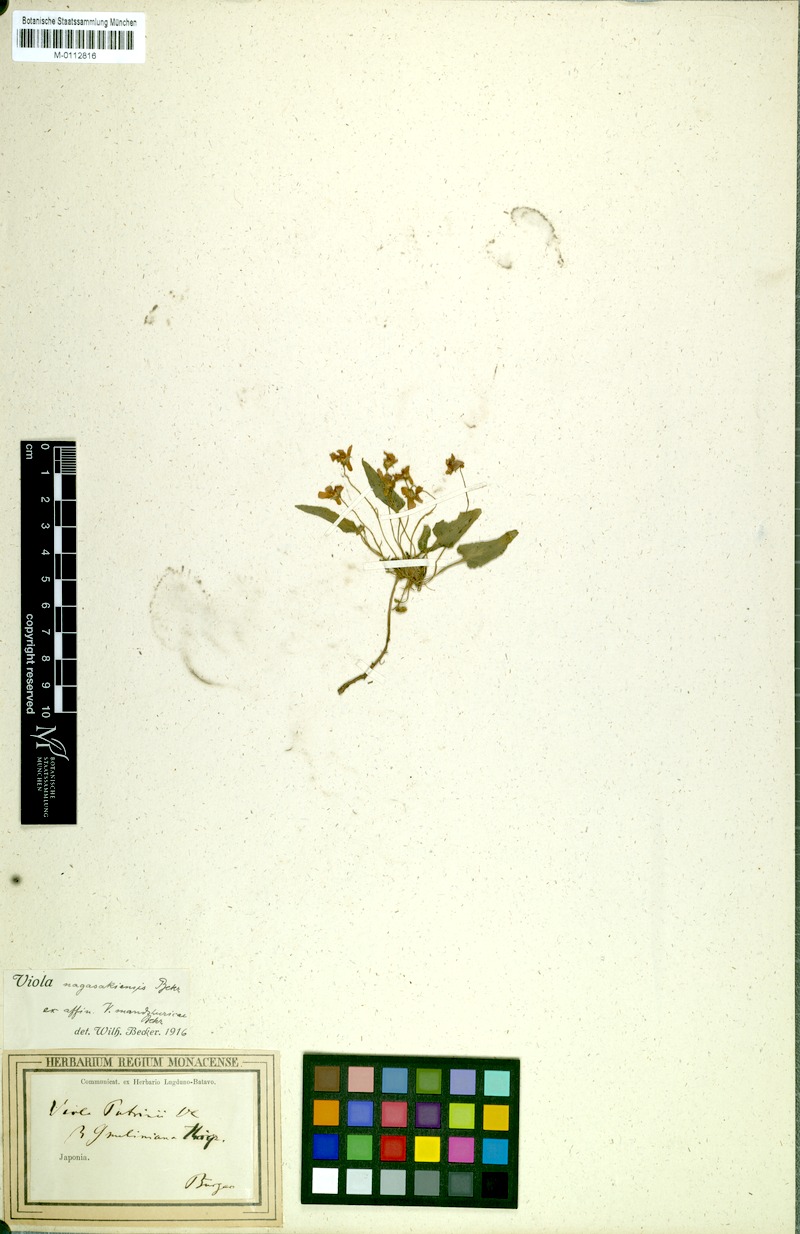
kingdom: Plantae
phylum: Tracheophyta
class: Magnoliopsida
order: Malpighiales
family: Violaceae
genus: Viola
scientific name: Viola mandshurica
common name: Manchuria violet
